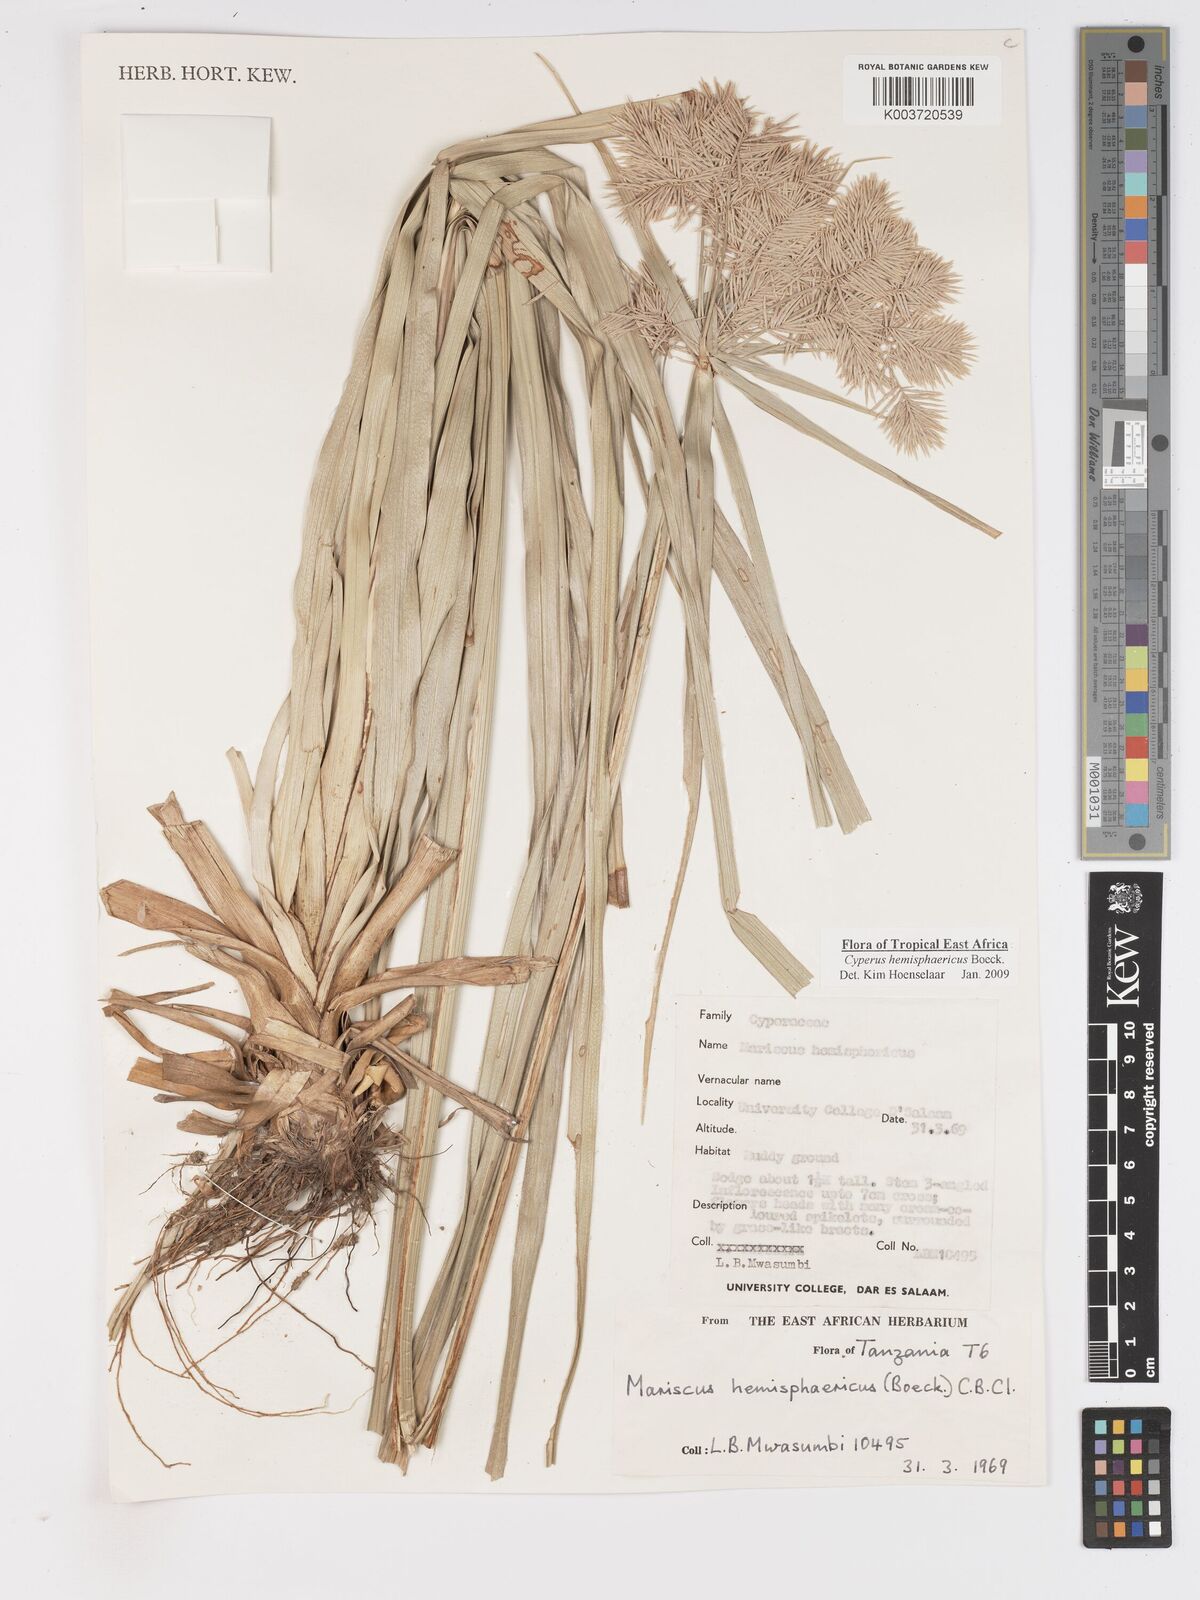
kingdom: Plantae
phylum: Tracheophyta
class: Liliopsida
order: Poales
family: Cyperaceae
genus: Cyperus
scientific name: Cyperus hemisphaericus
